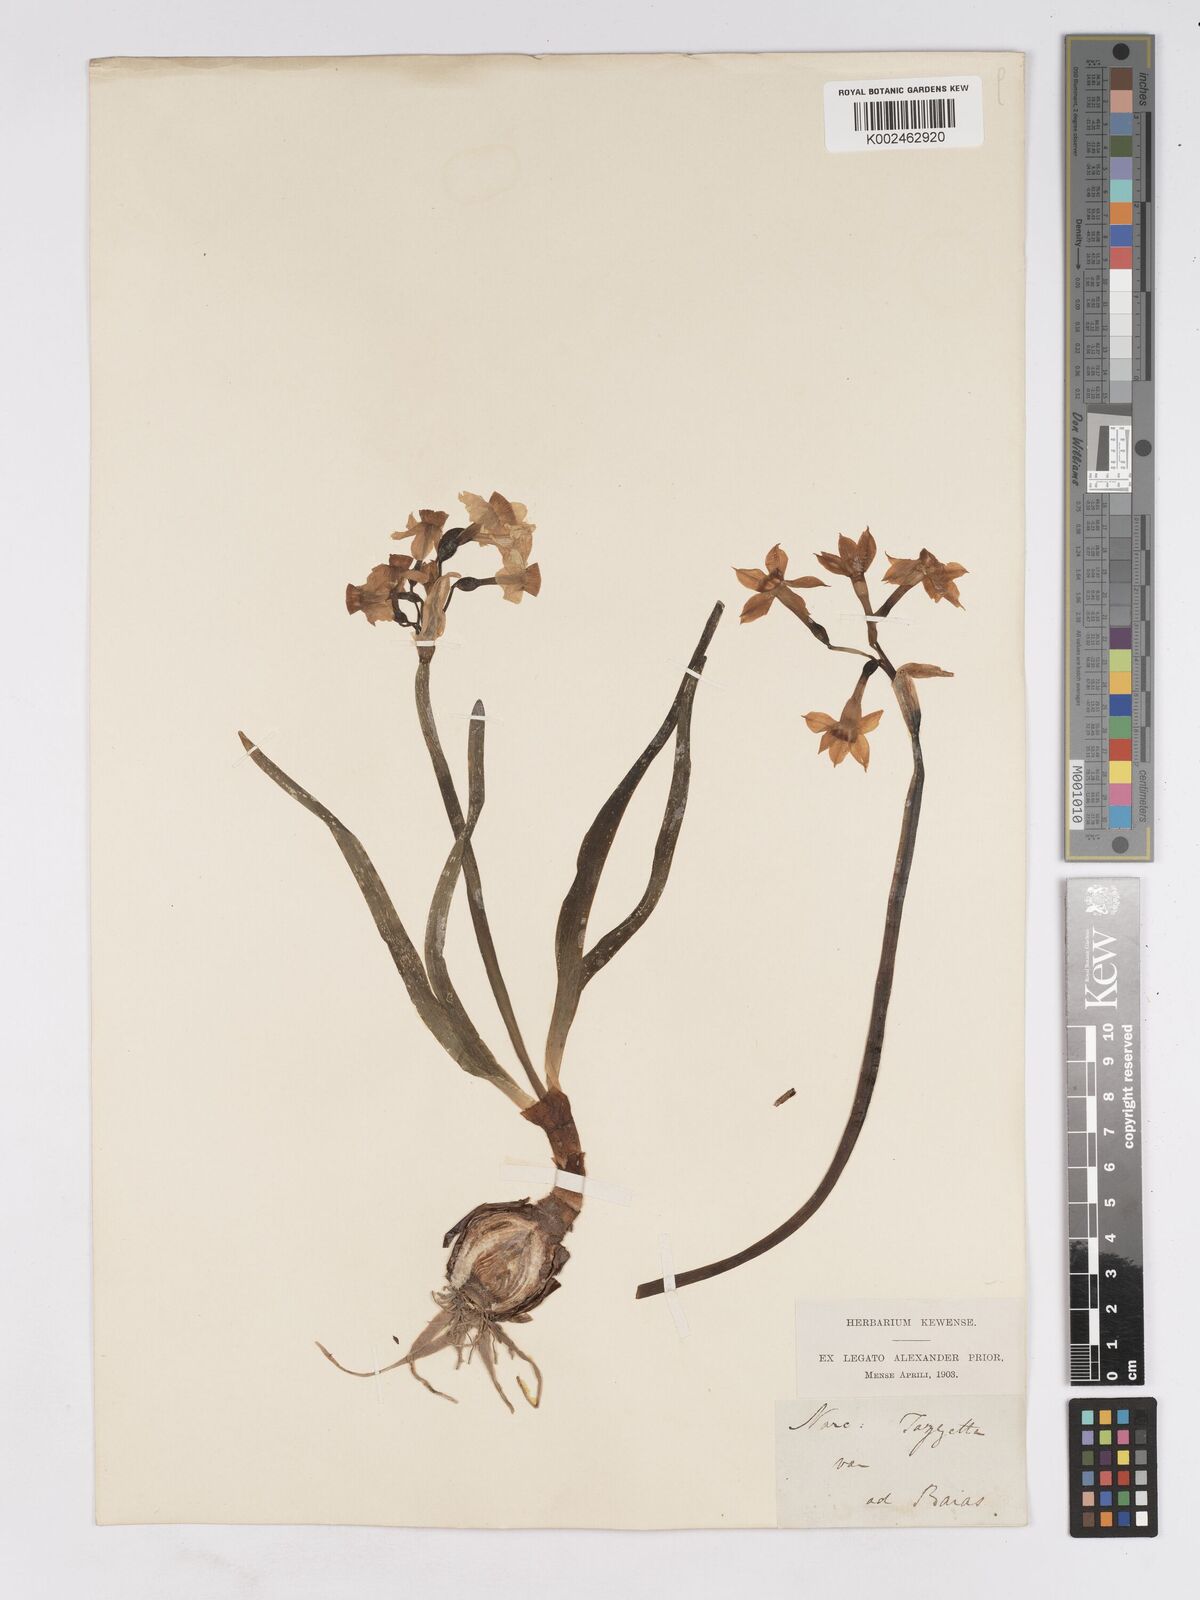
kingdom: Plantae
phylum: Tracheophyta
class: Liliopsida
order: Asparagales
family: Amaryllidaceae
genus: Narcissus
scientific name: Narcissus
